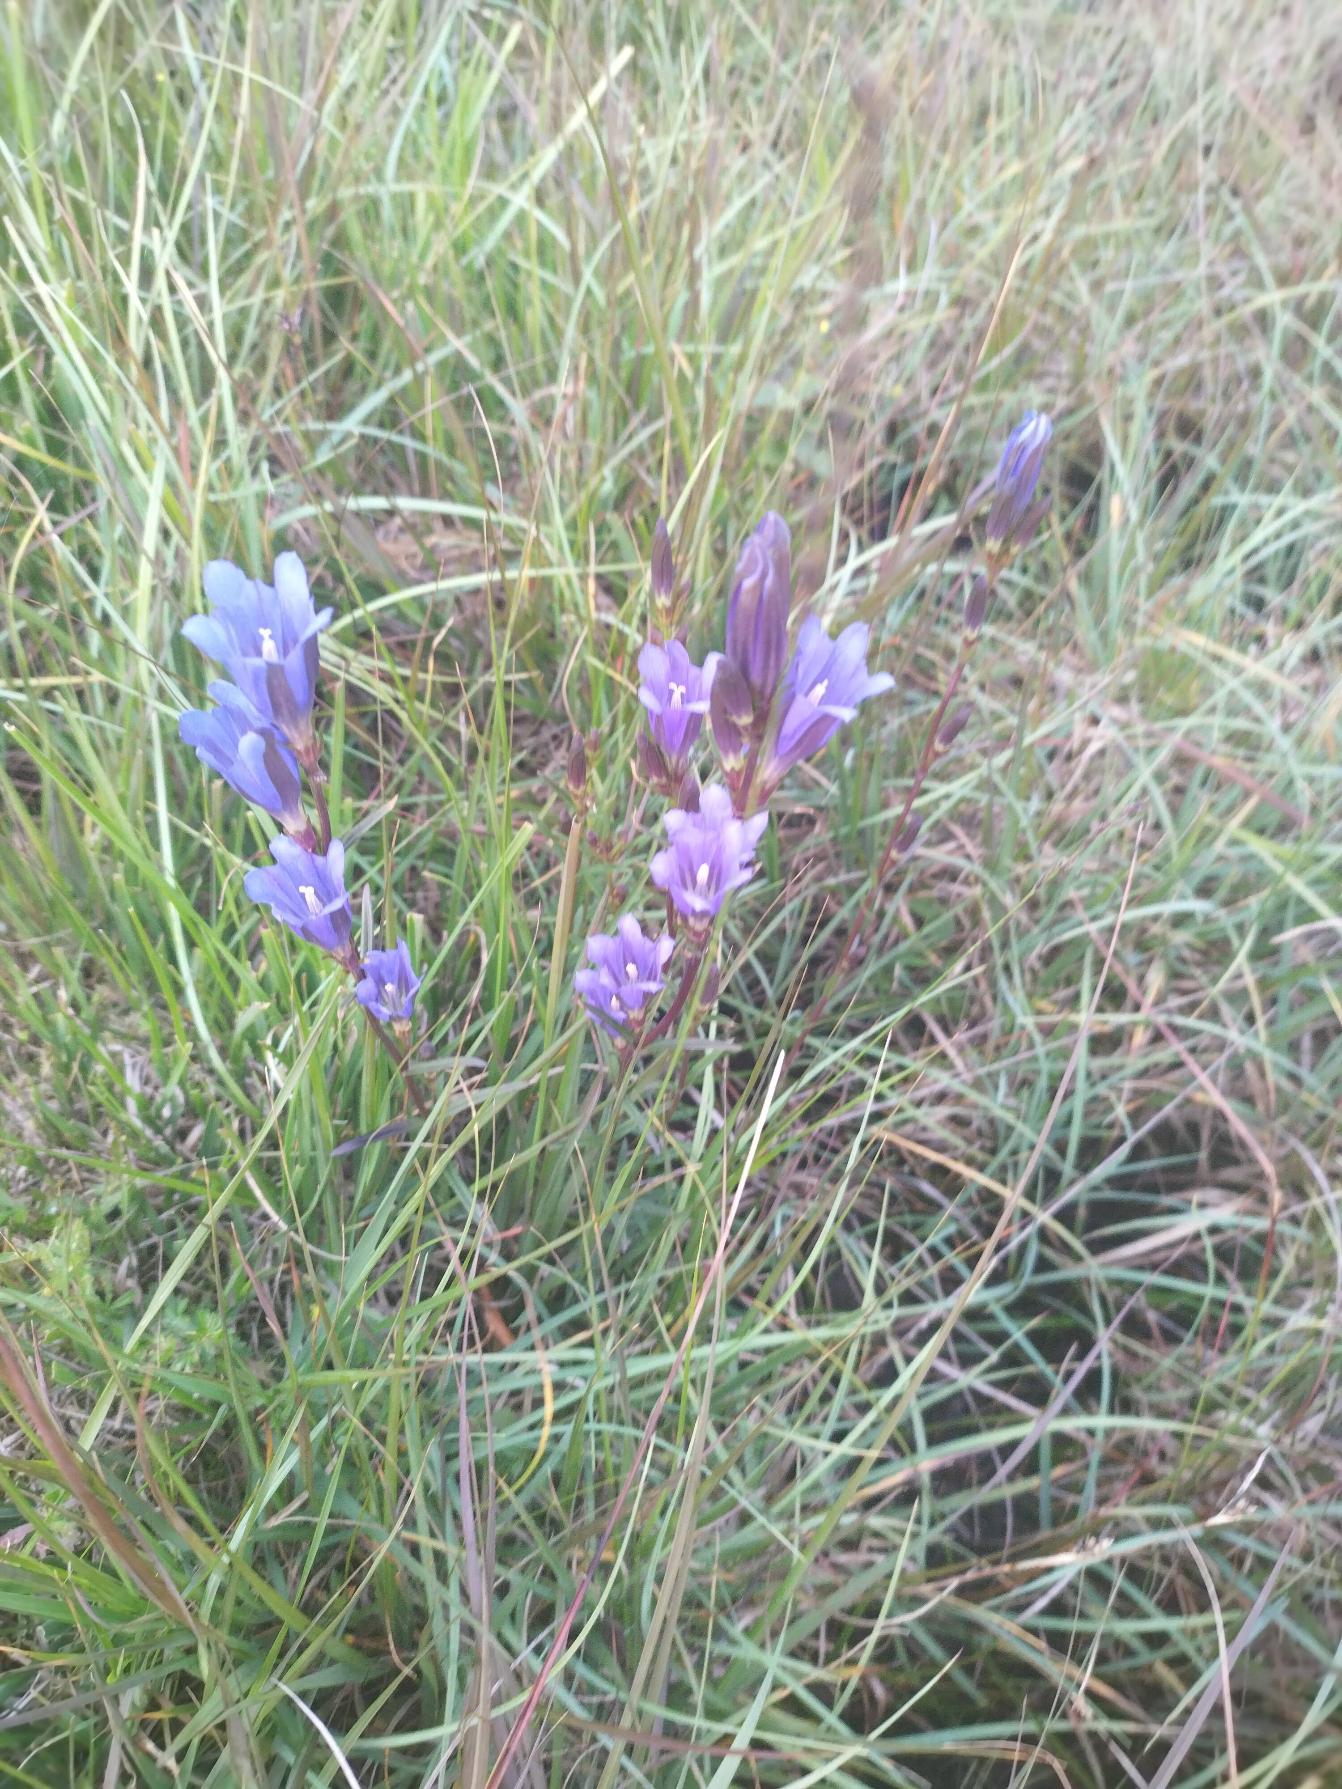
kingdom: Plantae
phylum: Tracheophyta
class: Magnoliopsida
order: Gentianales
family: Gentianaceae
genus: Gentiana
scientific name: Gentiana pneumonanthe
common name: Klokke-ensian
